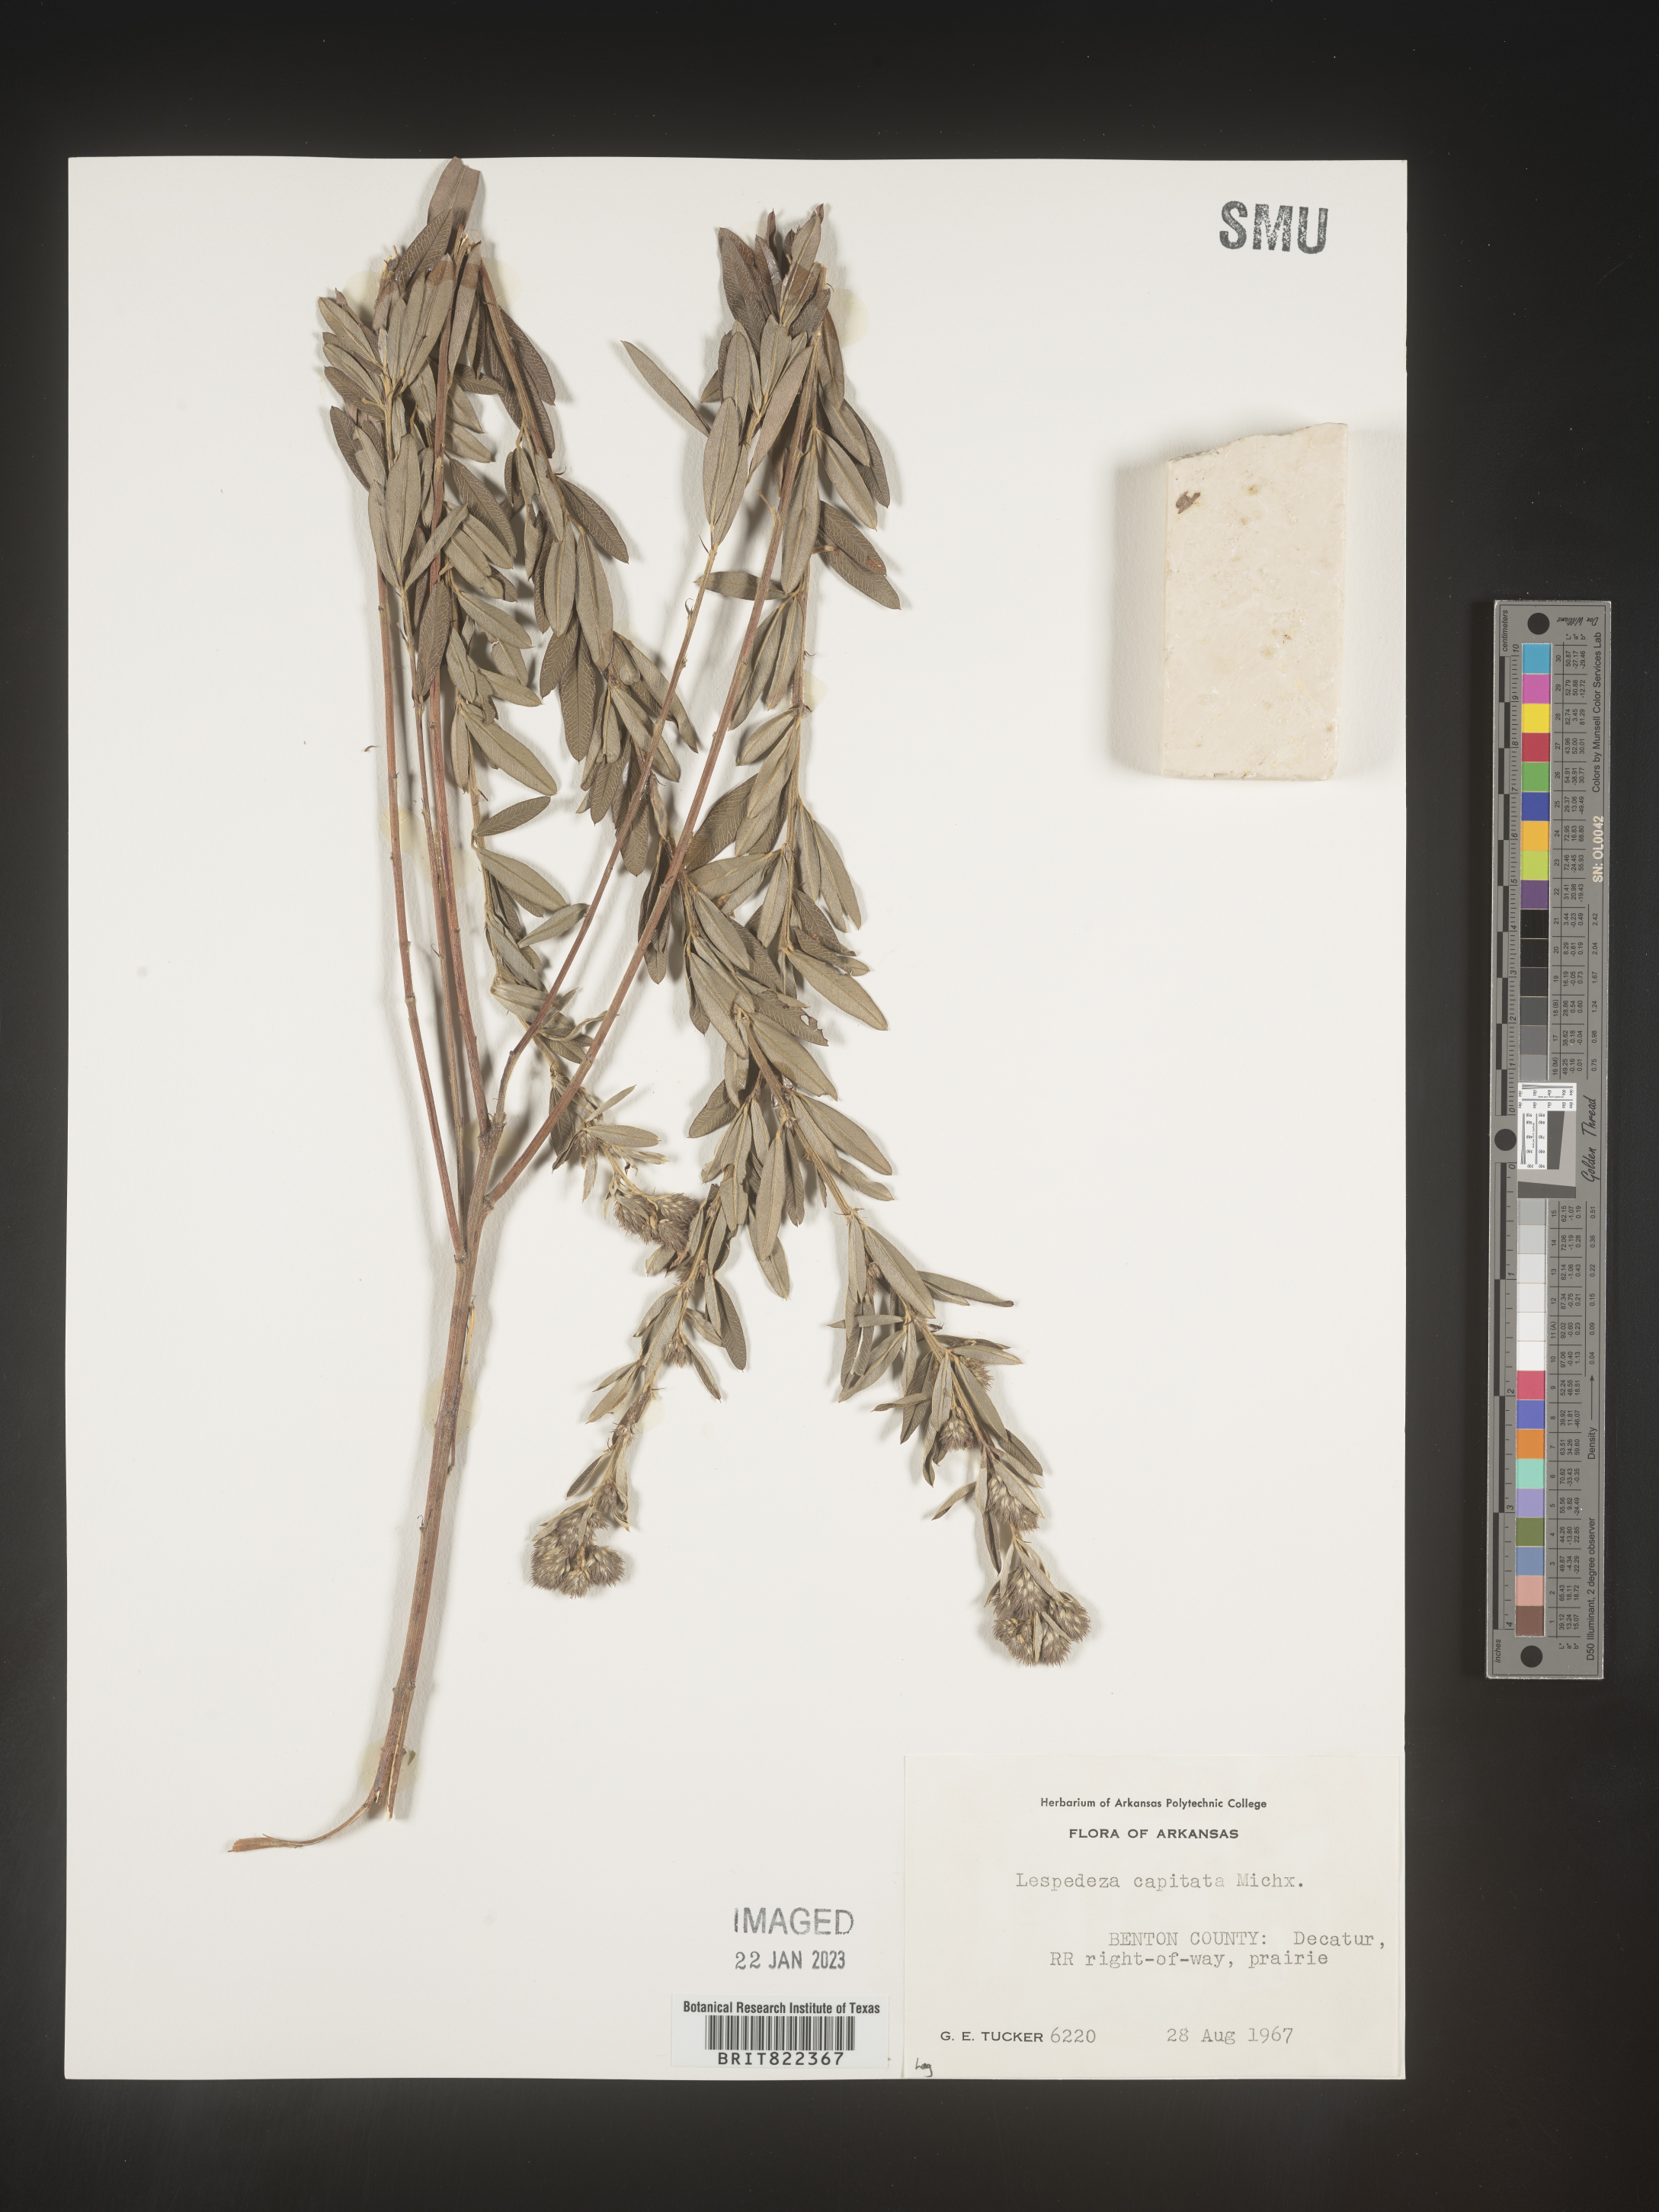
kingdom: Plantae
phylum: Tracheophyta
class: Magnoliopsida
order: Fabales
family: Fabaceae
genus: Lespedeza
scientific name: Lespedeza capitata
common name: Dusty clover
